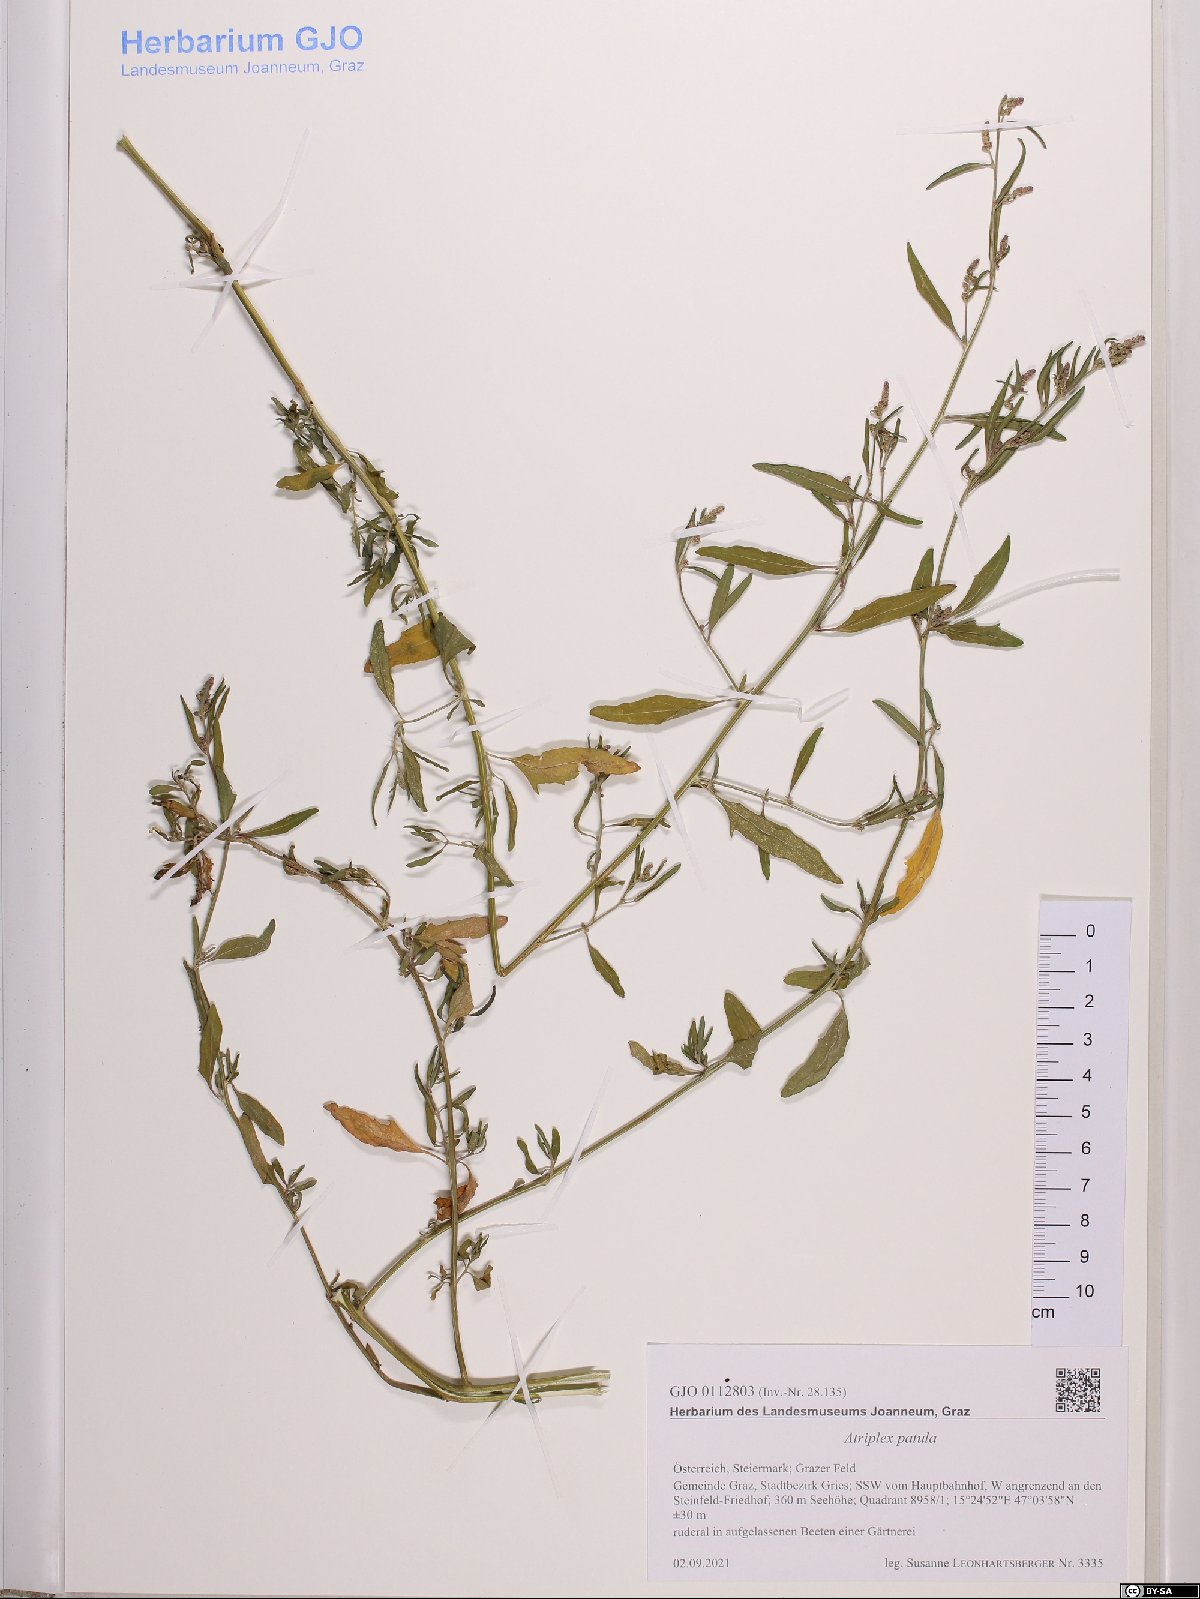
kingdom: Plantae
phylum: Tracheophyta
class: Magnoliopsida
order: Caryophyllales
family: Amaranthaceae
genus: Atriplex
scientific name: Atriplex patula
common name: Common orache
